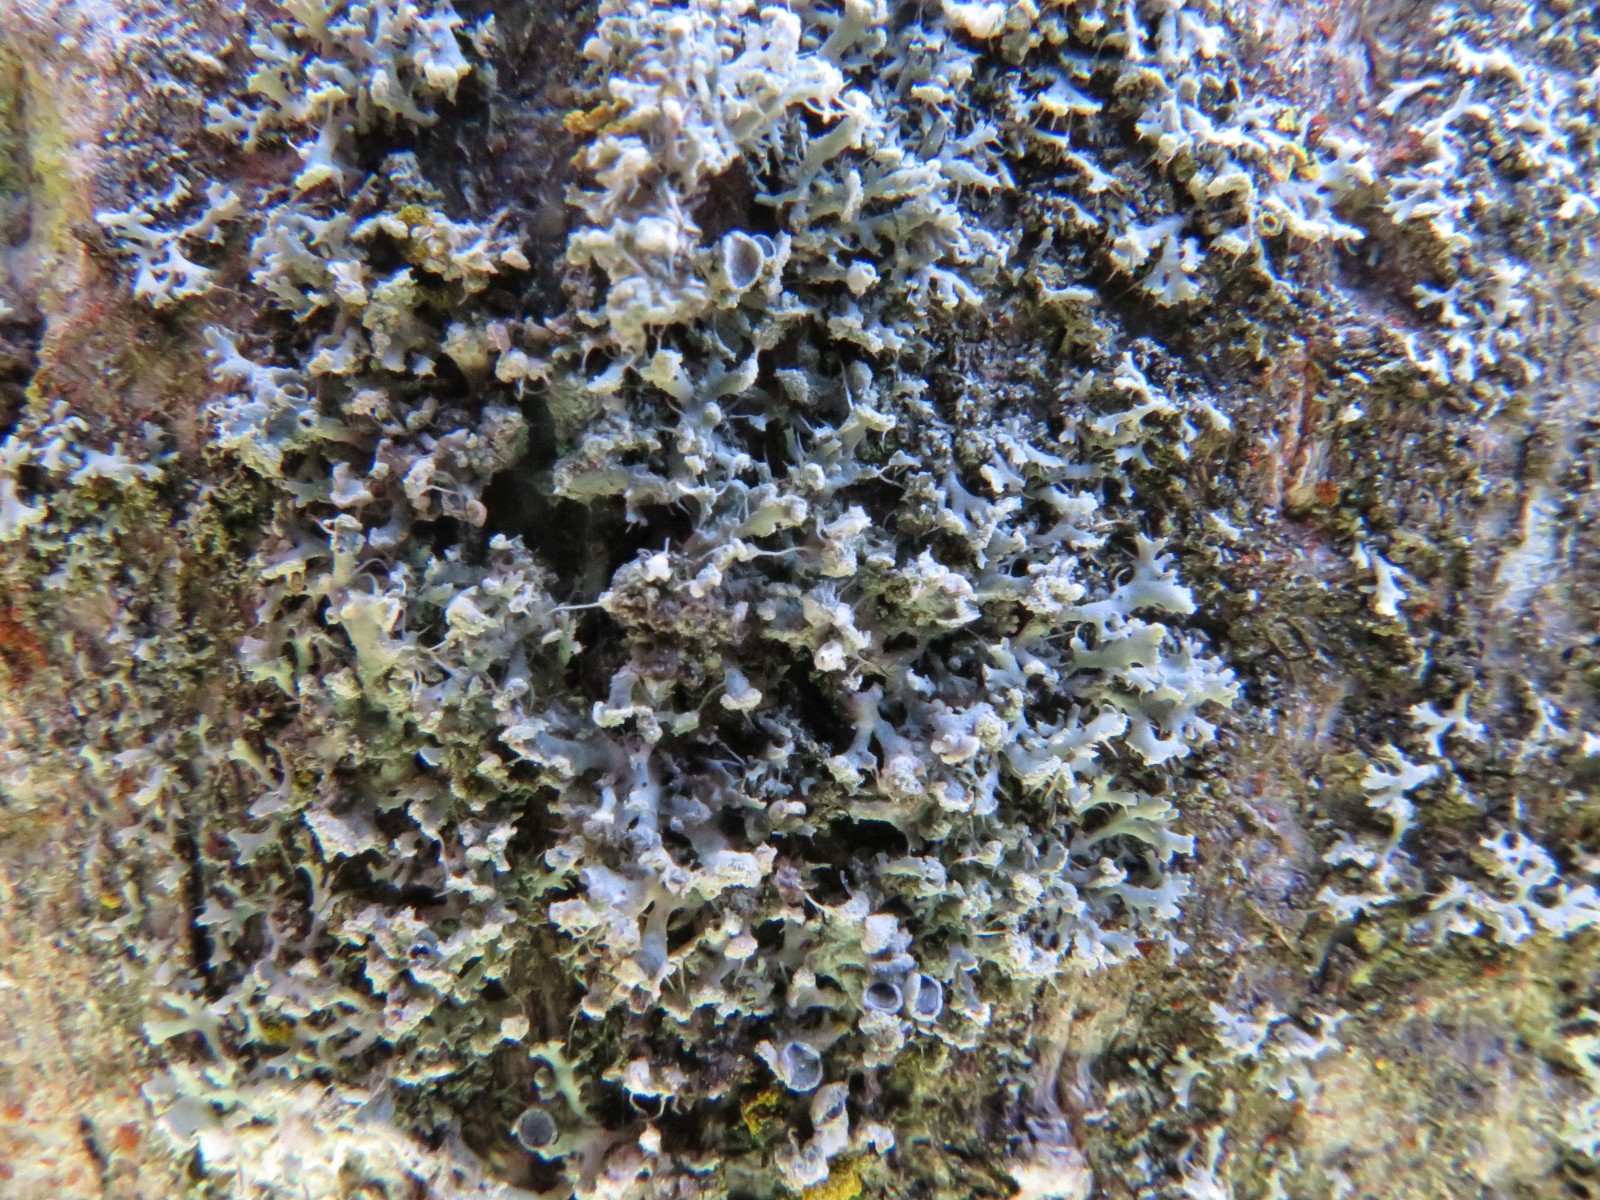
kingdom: Fungi
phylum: Ascomycota
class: Lecanoromycetes
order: Caliciales
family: Physciaceae
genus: Physcia
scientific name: Physcia adscendens
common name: hætte-rosetlav
